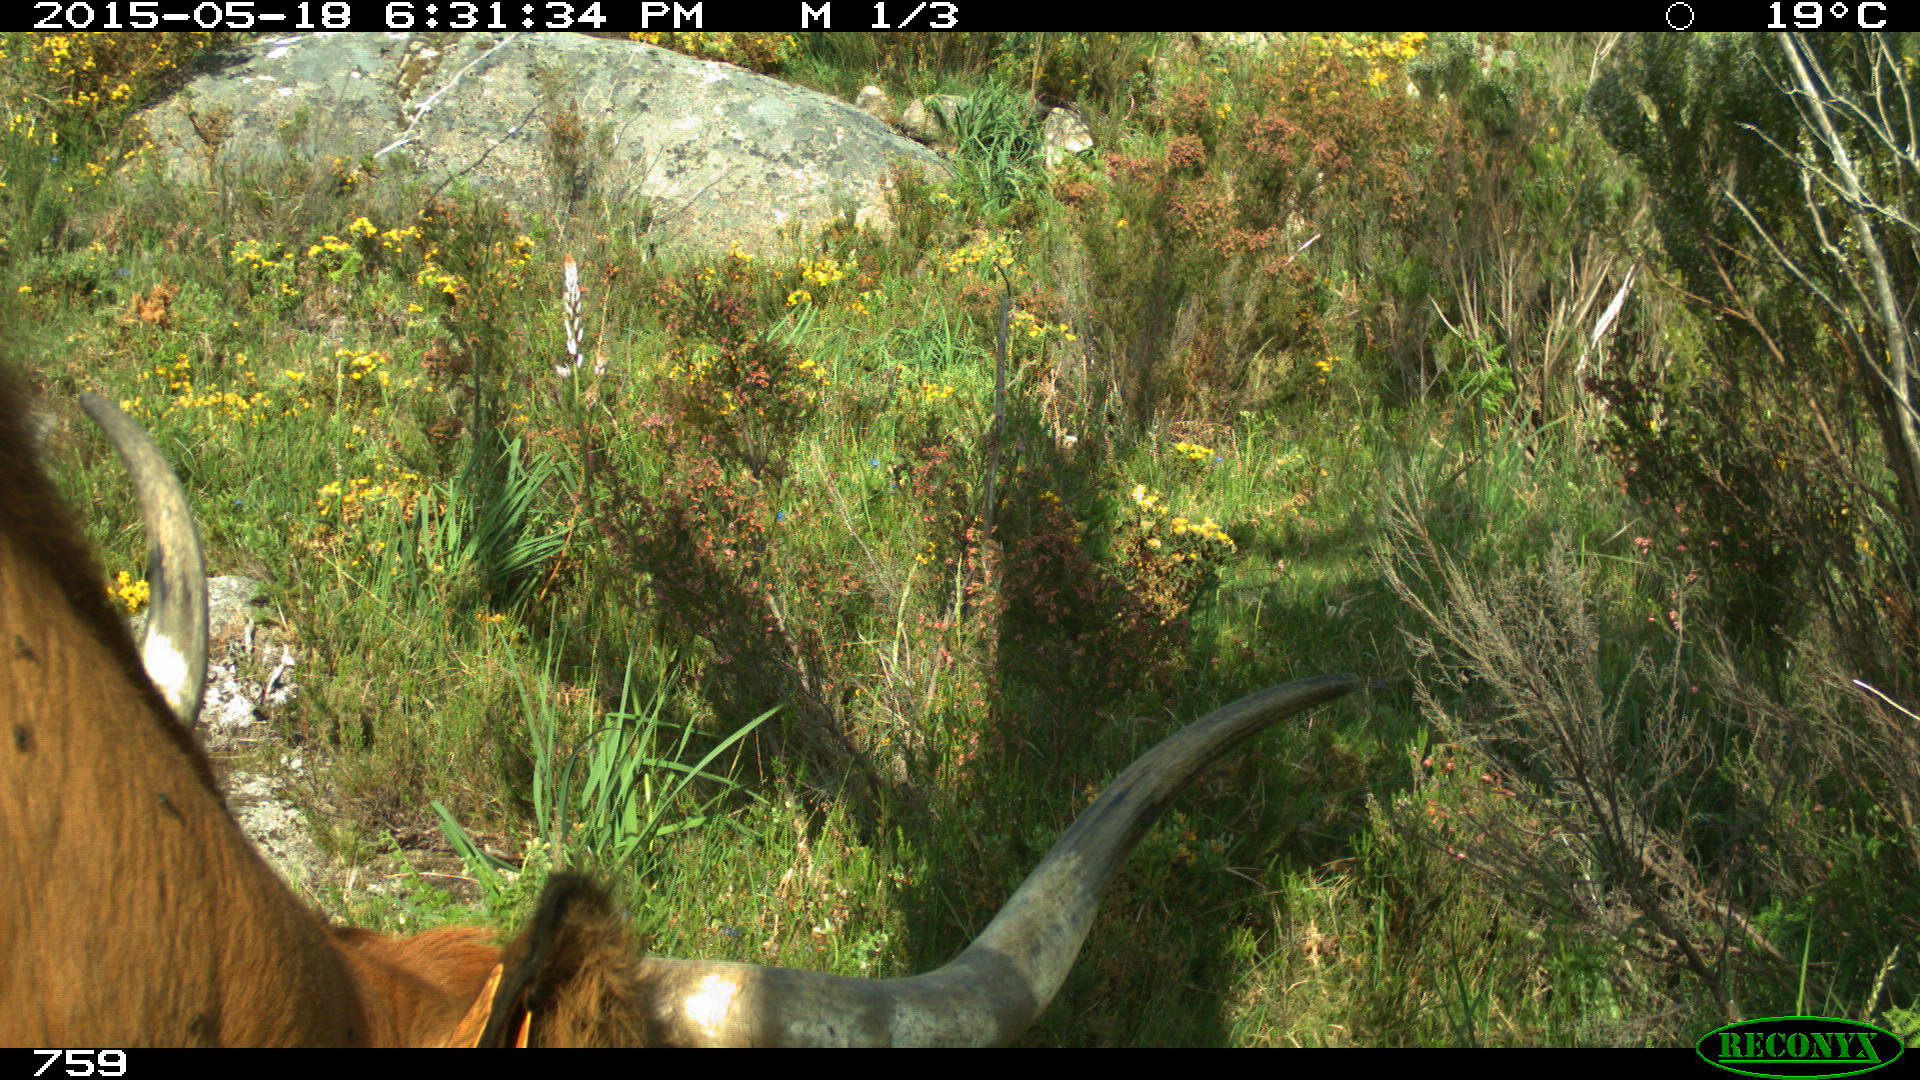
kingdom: Animalia
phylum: Chordata
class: Mammalia
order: Artiodactyla
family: Bovidae
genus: Bos
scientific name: Bos taurus
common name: Domesticated cattle
